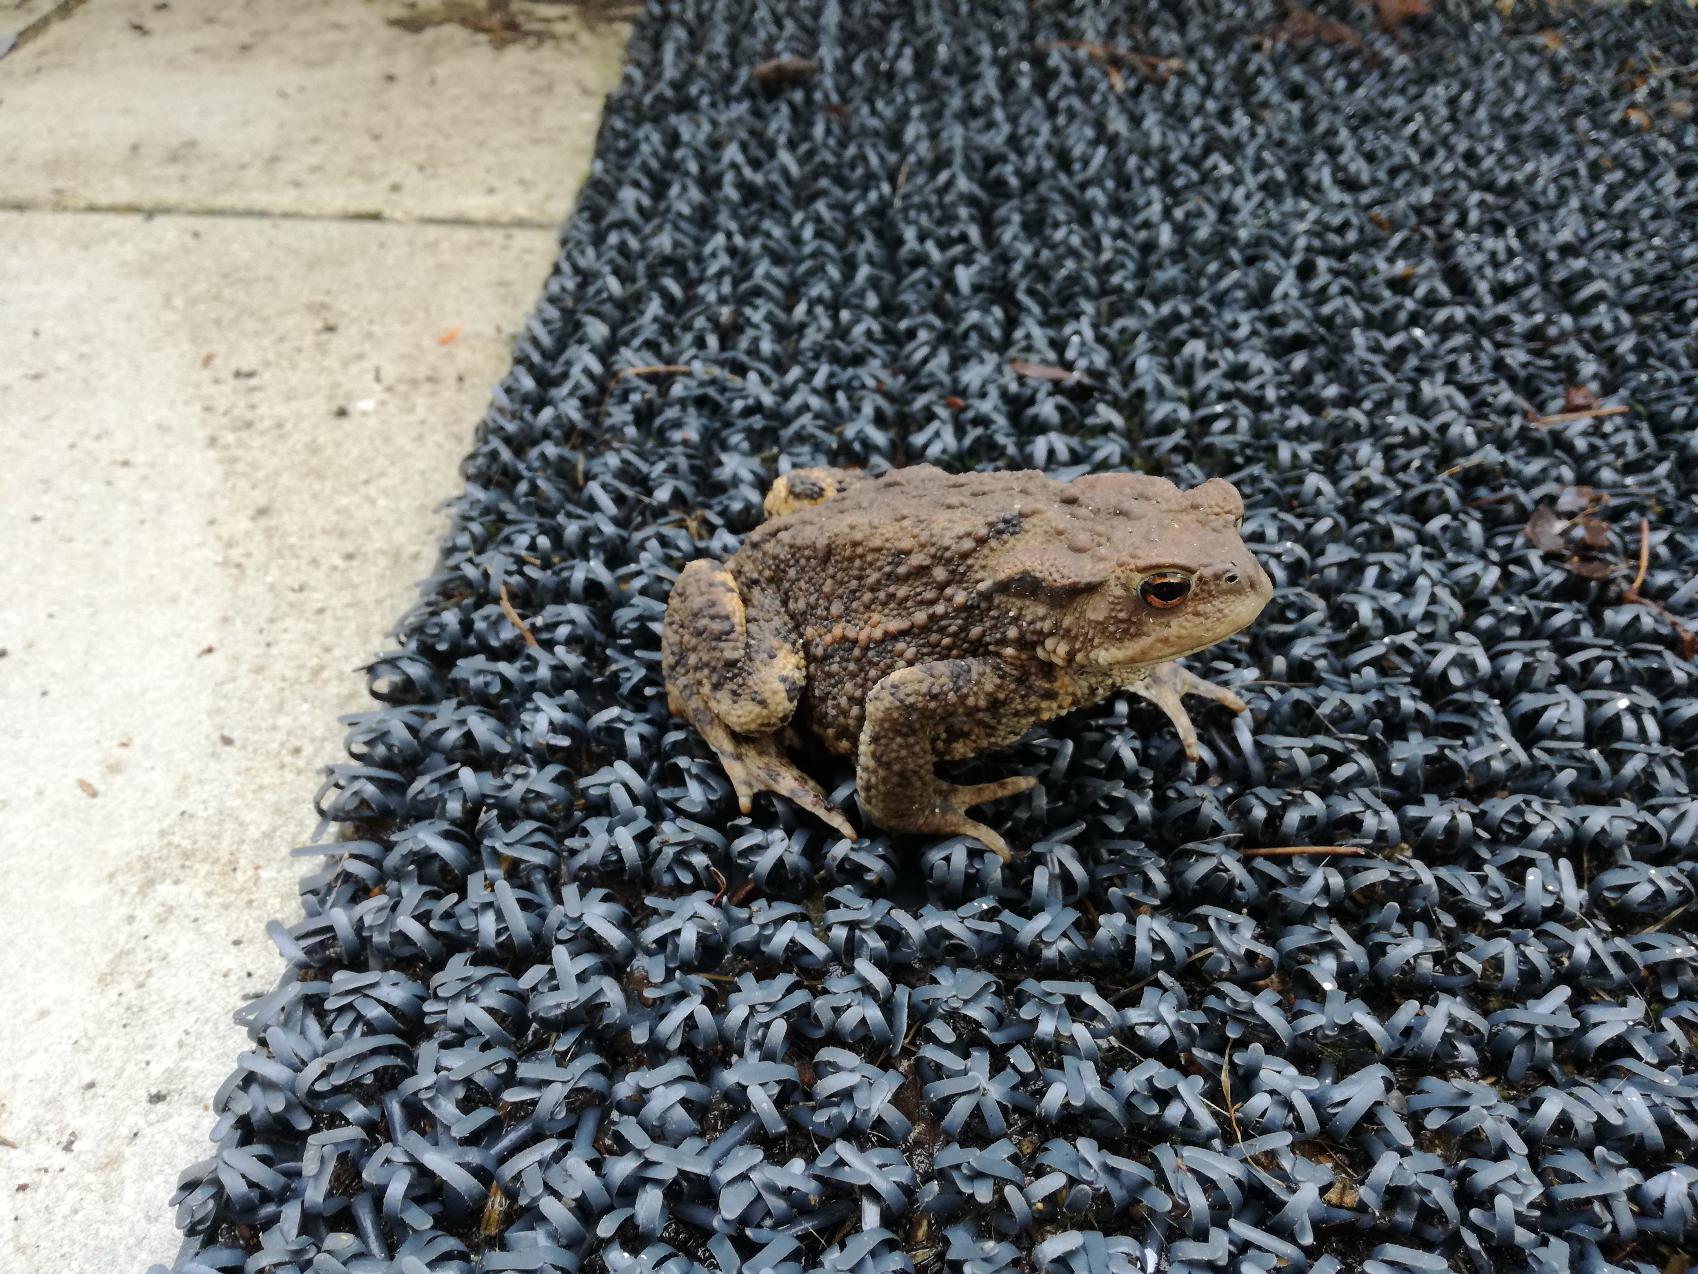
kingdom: Animalia
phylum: Chordata
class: Amphibia
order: Anura
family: Bufonidae
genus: Bufo
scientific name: Bufo bufo
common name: Skrubtudse
